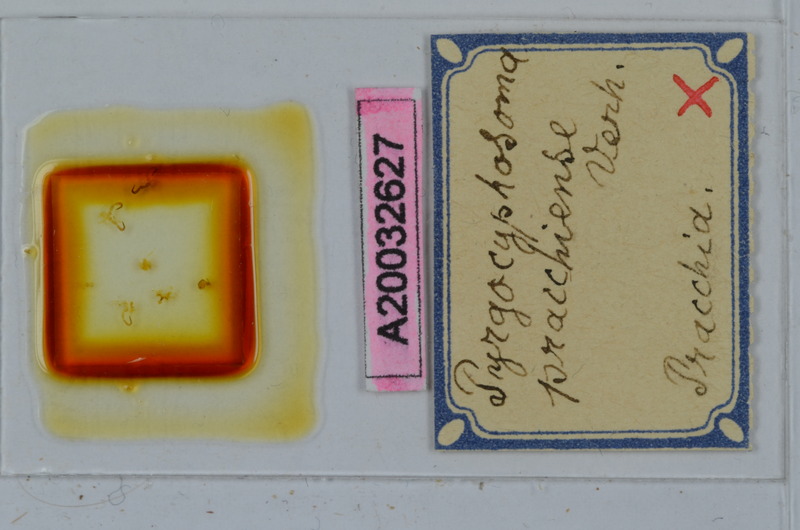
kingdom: Animalia
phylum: Arthropoda
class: Diplopoda
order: Chordeumatida
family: Craspedosomatidae
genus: Pyrgocyphosoma
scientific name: Pyrgocyphosoma pracchiense
